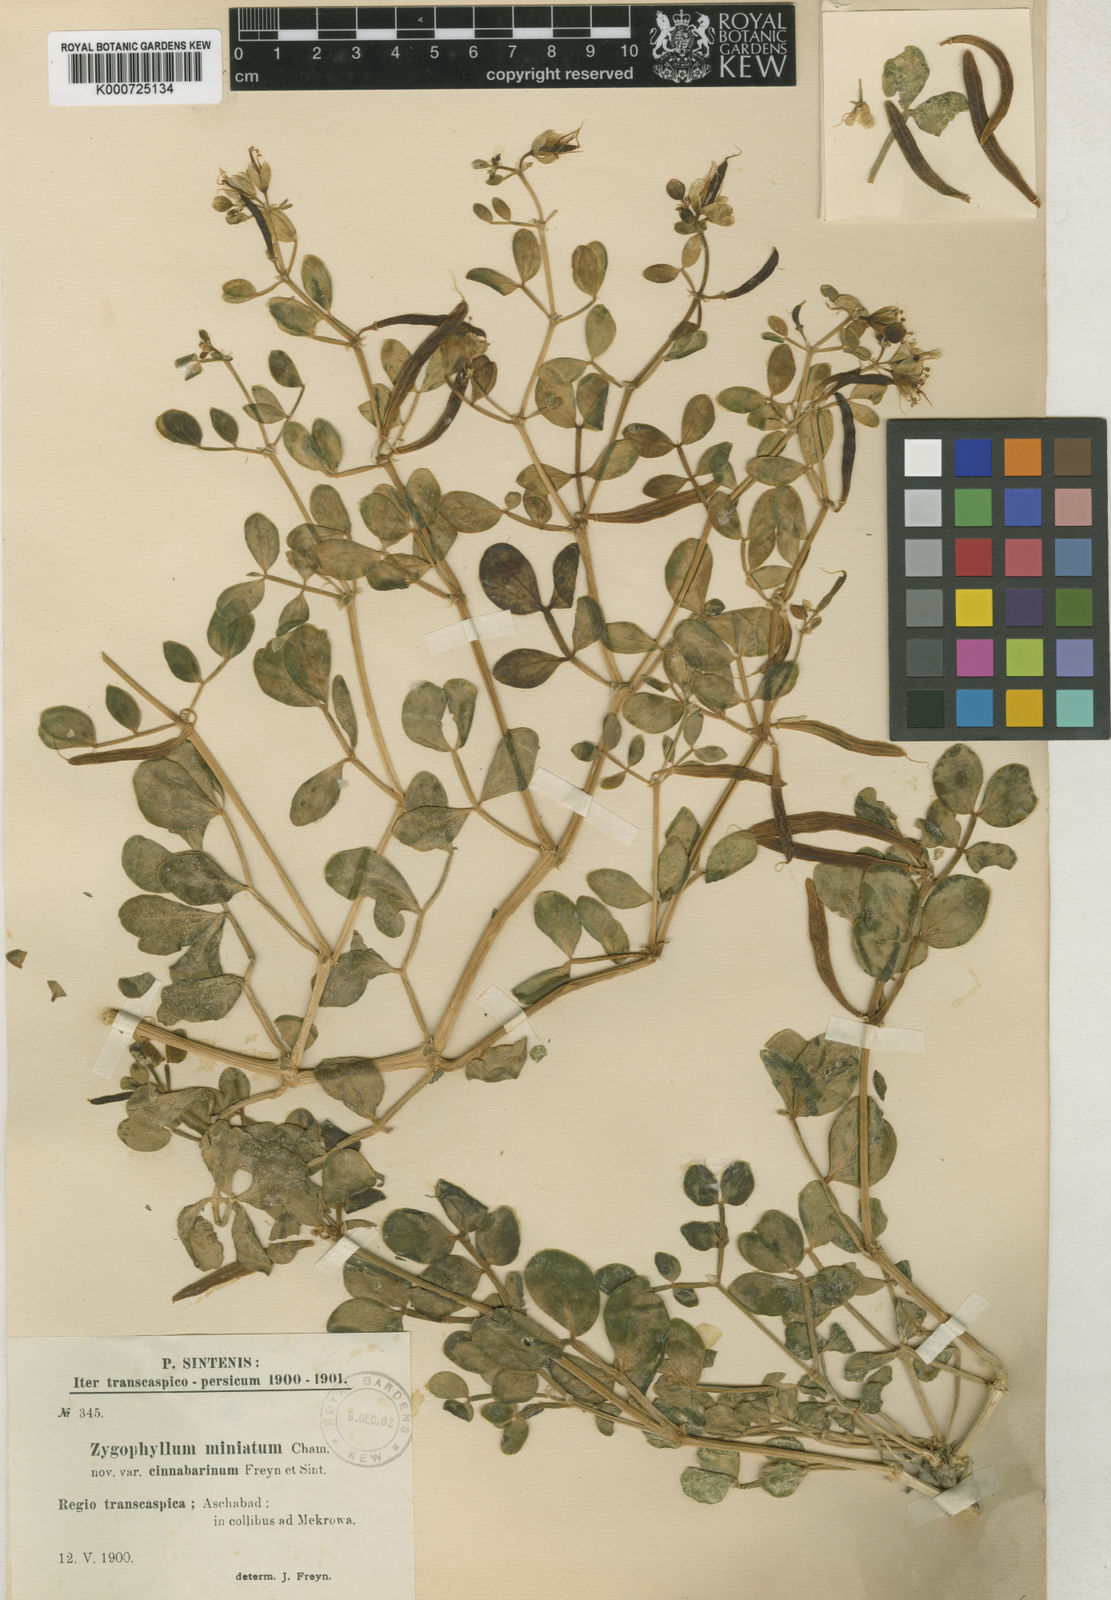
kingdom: Plantae
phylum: Tracheophyta
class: Magnoliopsida
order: Zygophyllales
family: Zygophyllaceae
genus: Zygophyllum
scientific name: Zygophyllum miniatum
